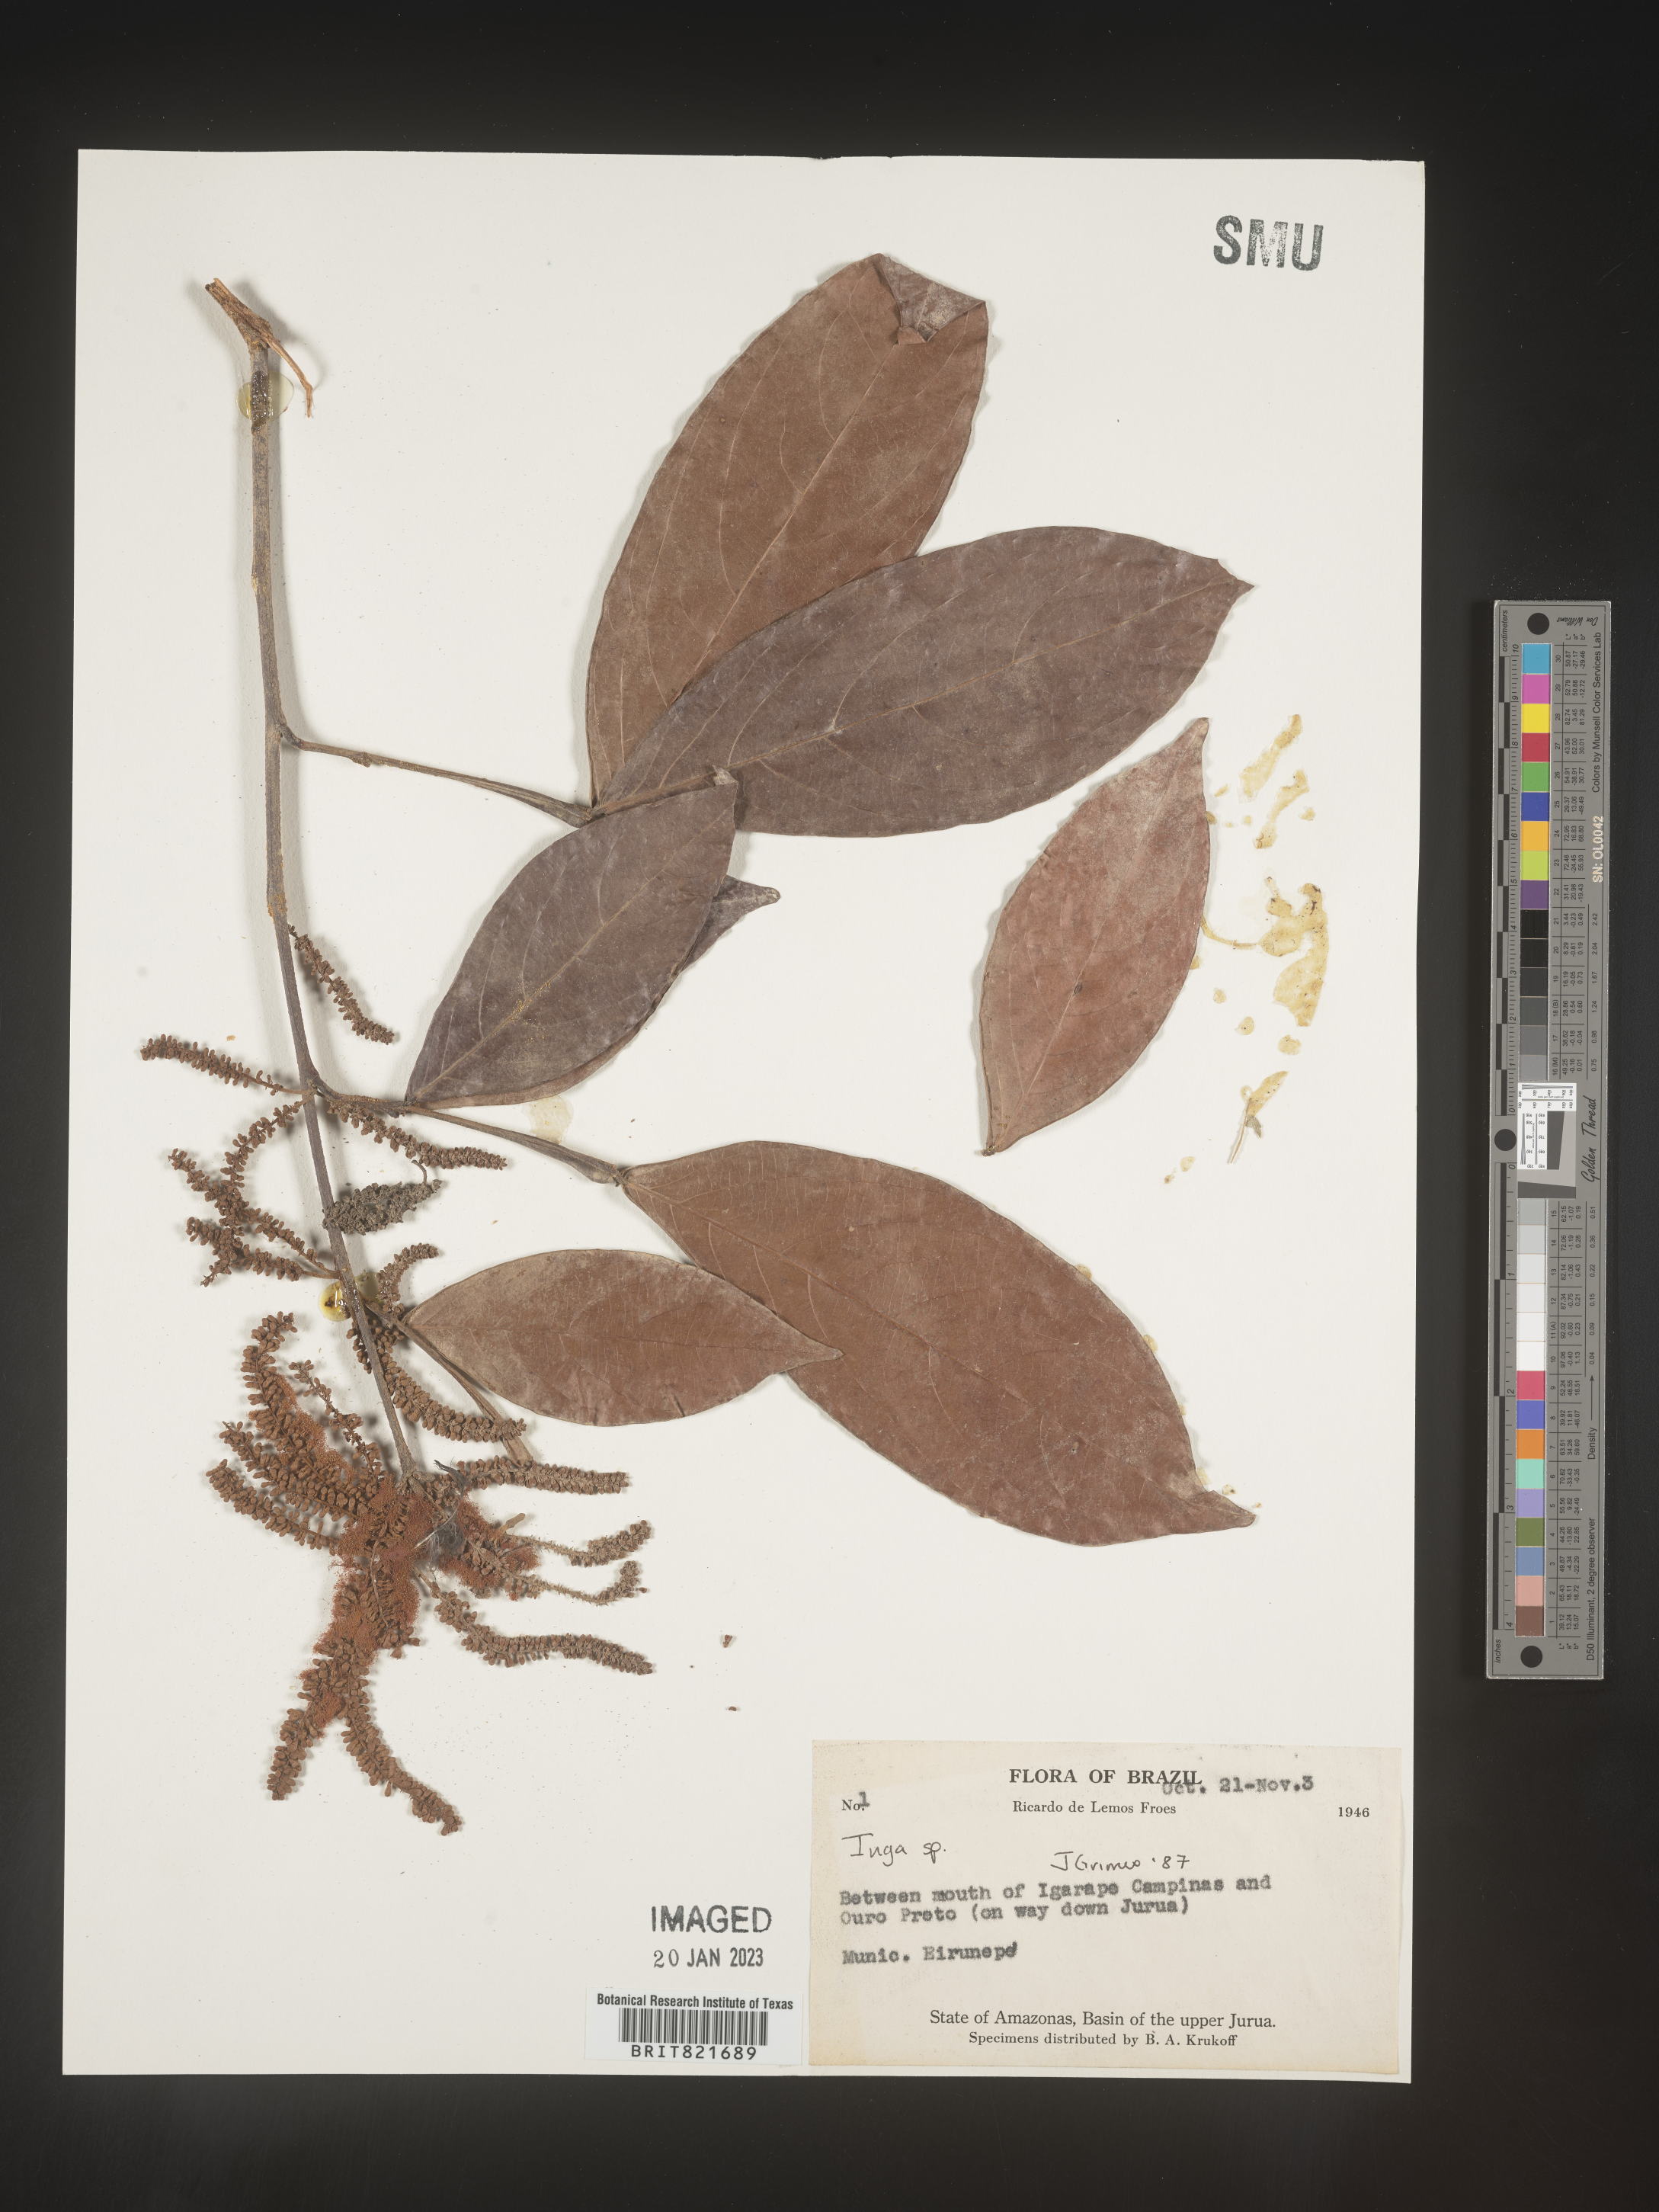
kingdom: Plantae
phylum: Tracheophyta
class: Magnoliopsida
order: Fabales
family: Fabaceae
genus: Inga
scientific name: Inga
